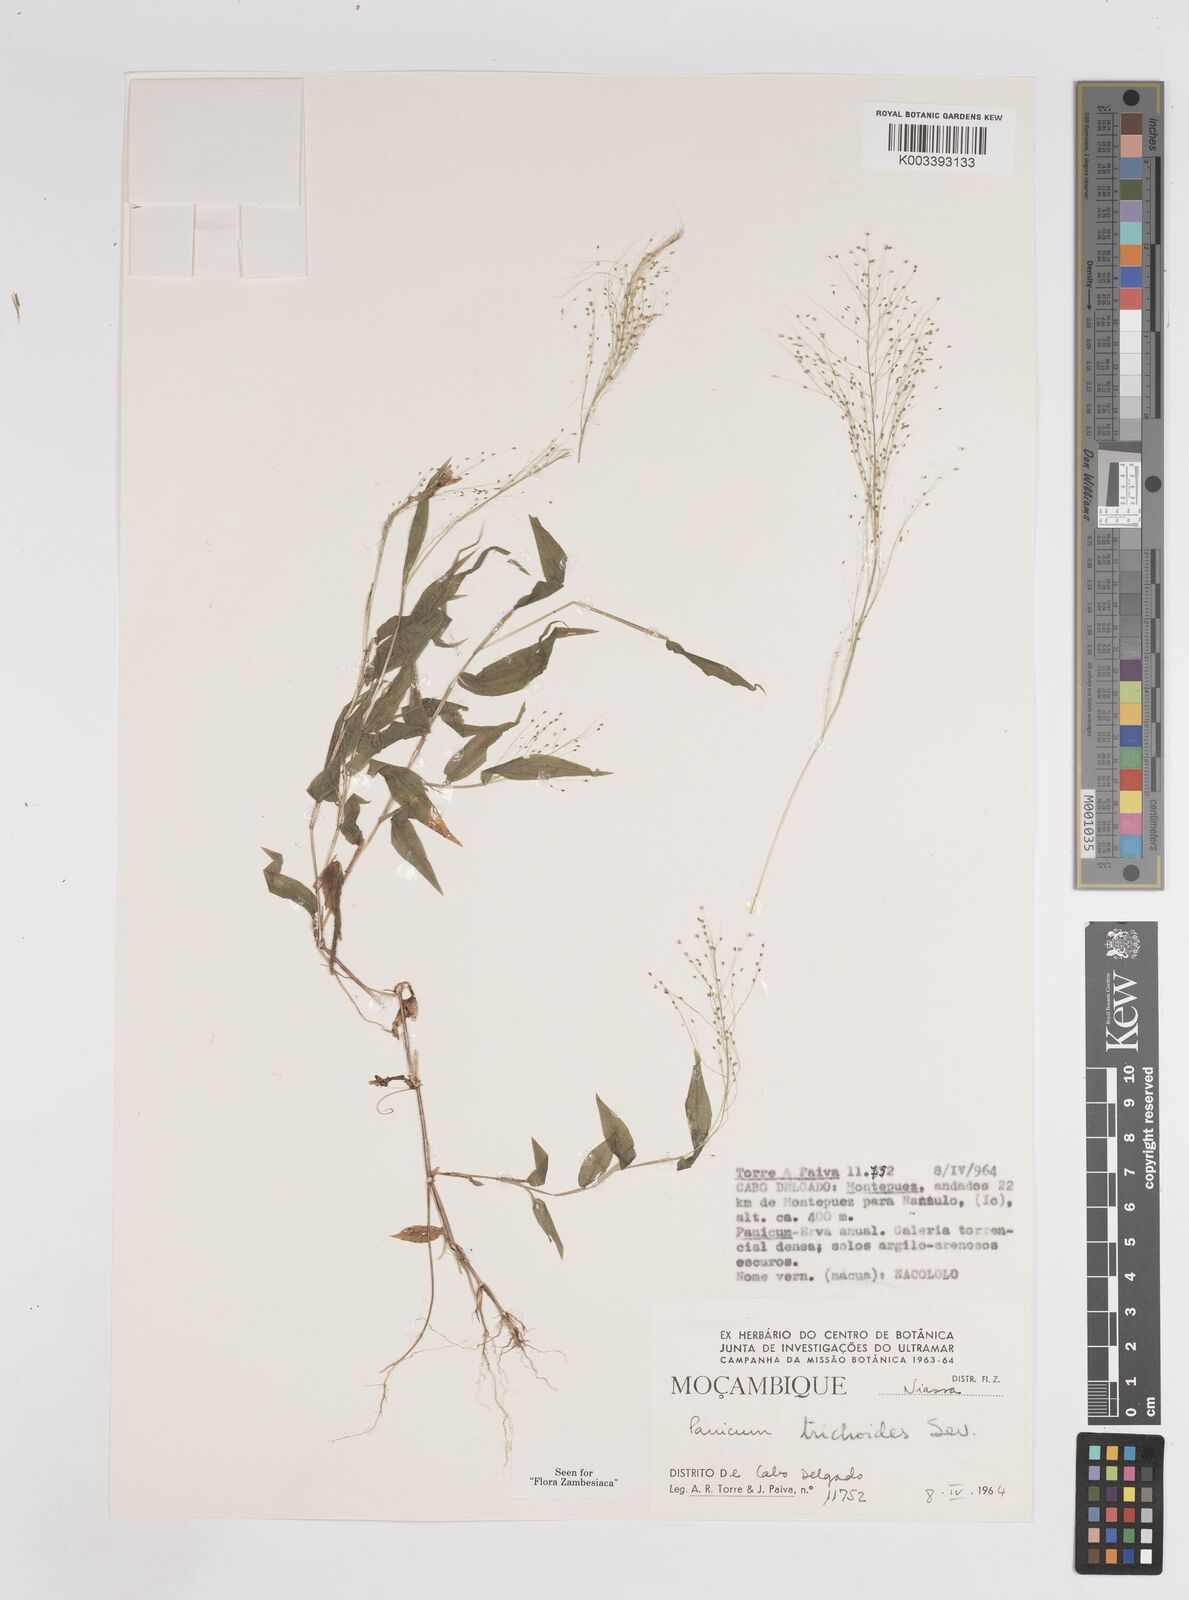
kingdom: Plantae
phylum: Tracheophyta
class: Liliopsida
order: Poales
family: Poaceae
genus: Panicum
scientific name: Panicum trichoides
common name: Tickle grass
